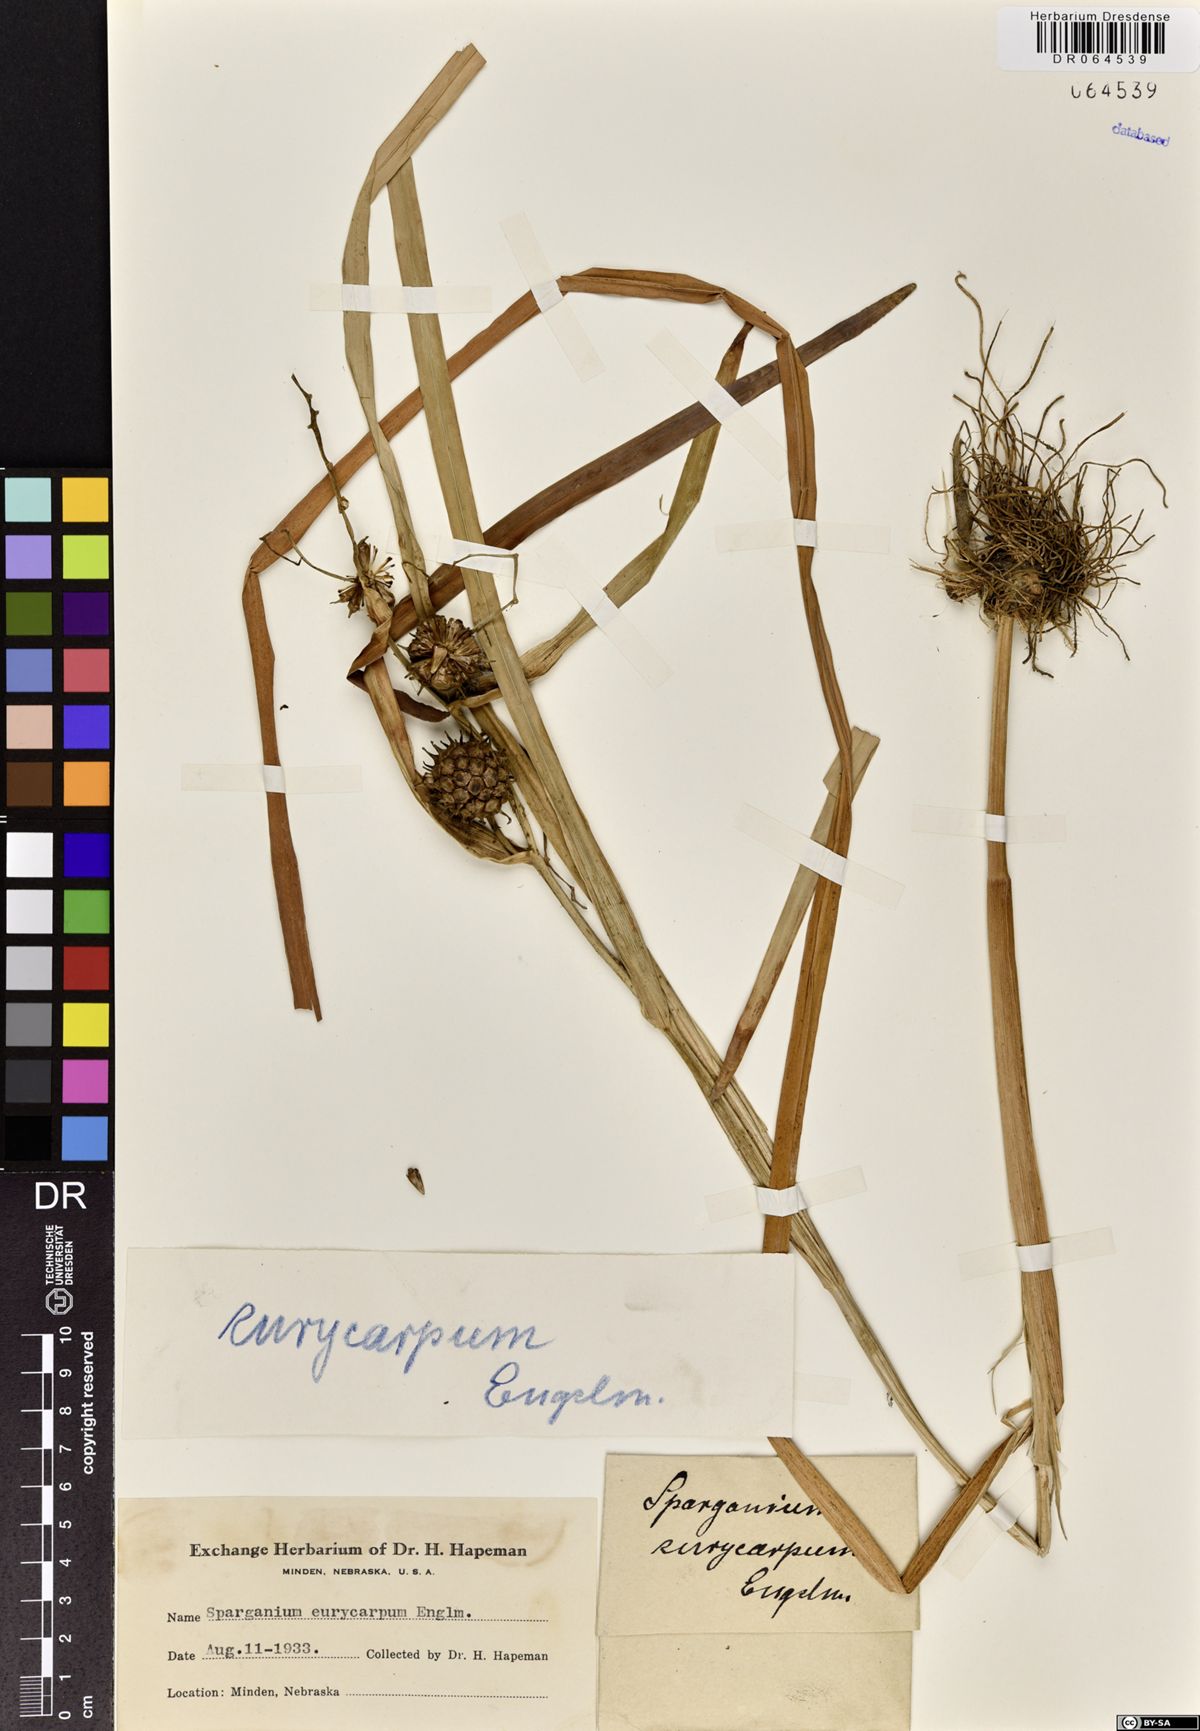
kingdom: Plantae
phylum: Tracheophyta
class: Liliopsida
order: Poales
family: Typhaceae
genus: Sparganium
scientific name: Sparganium eurycarpum
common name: Broad-fruited burreed
